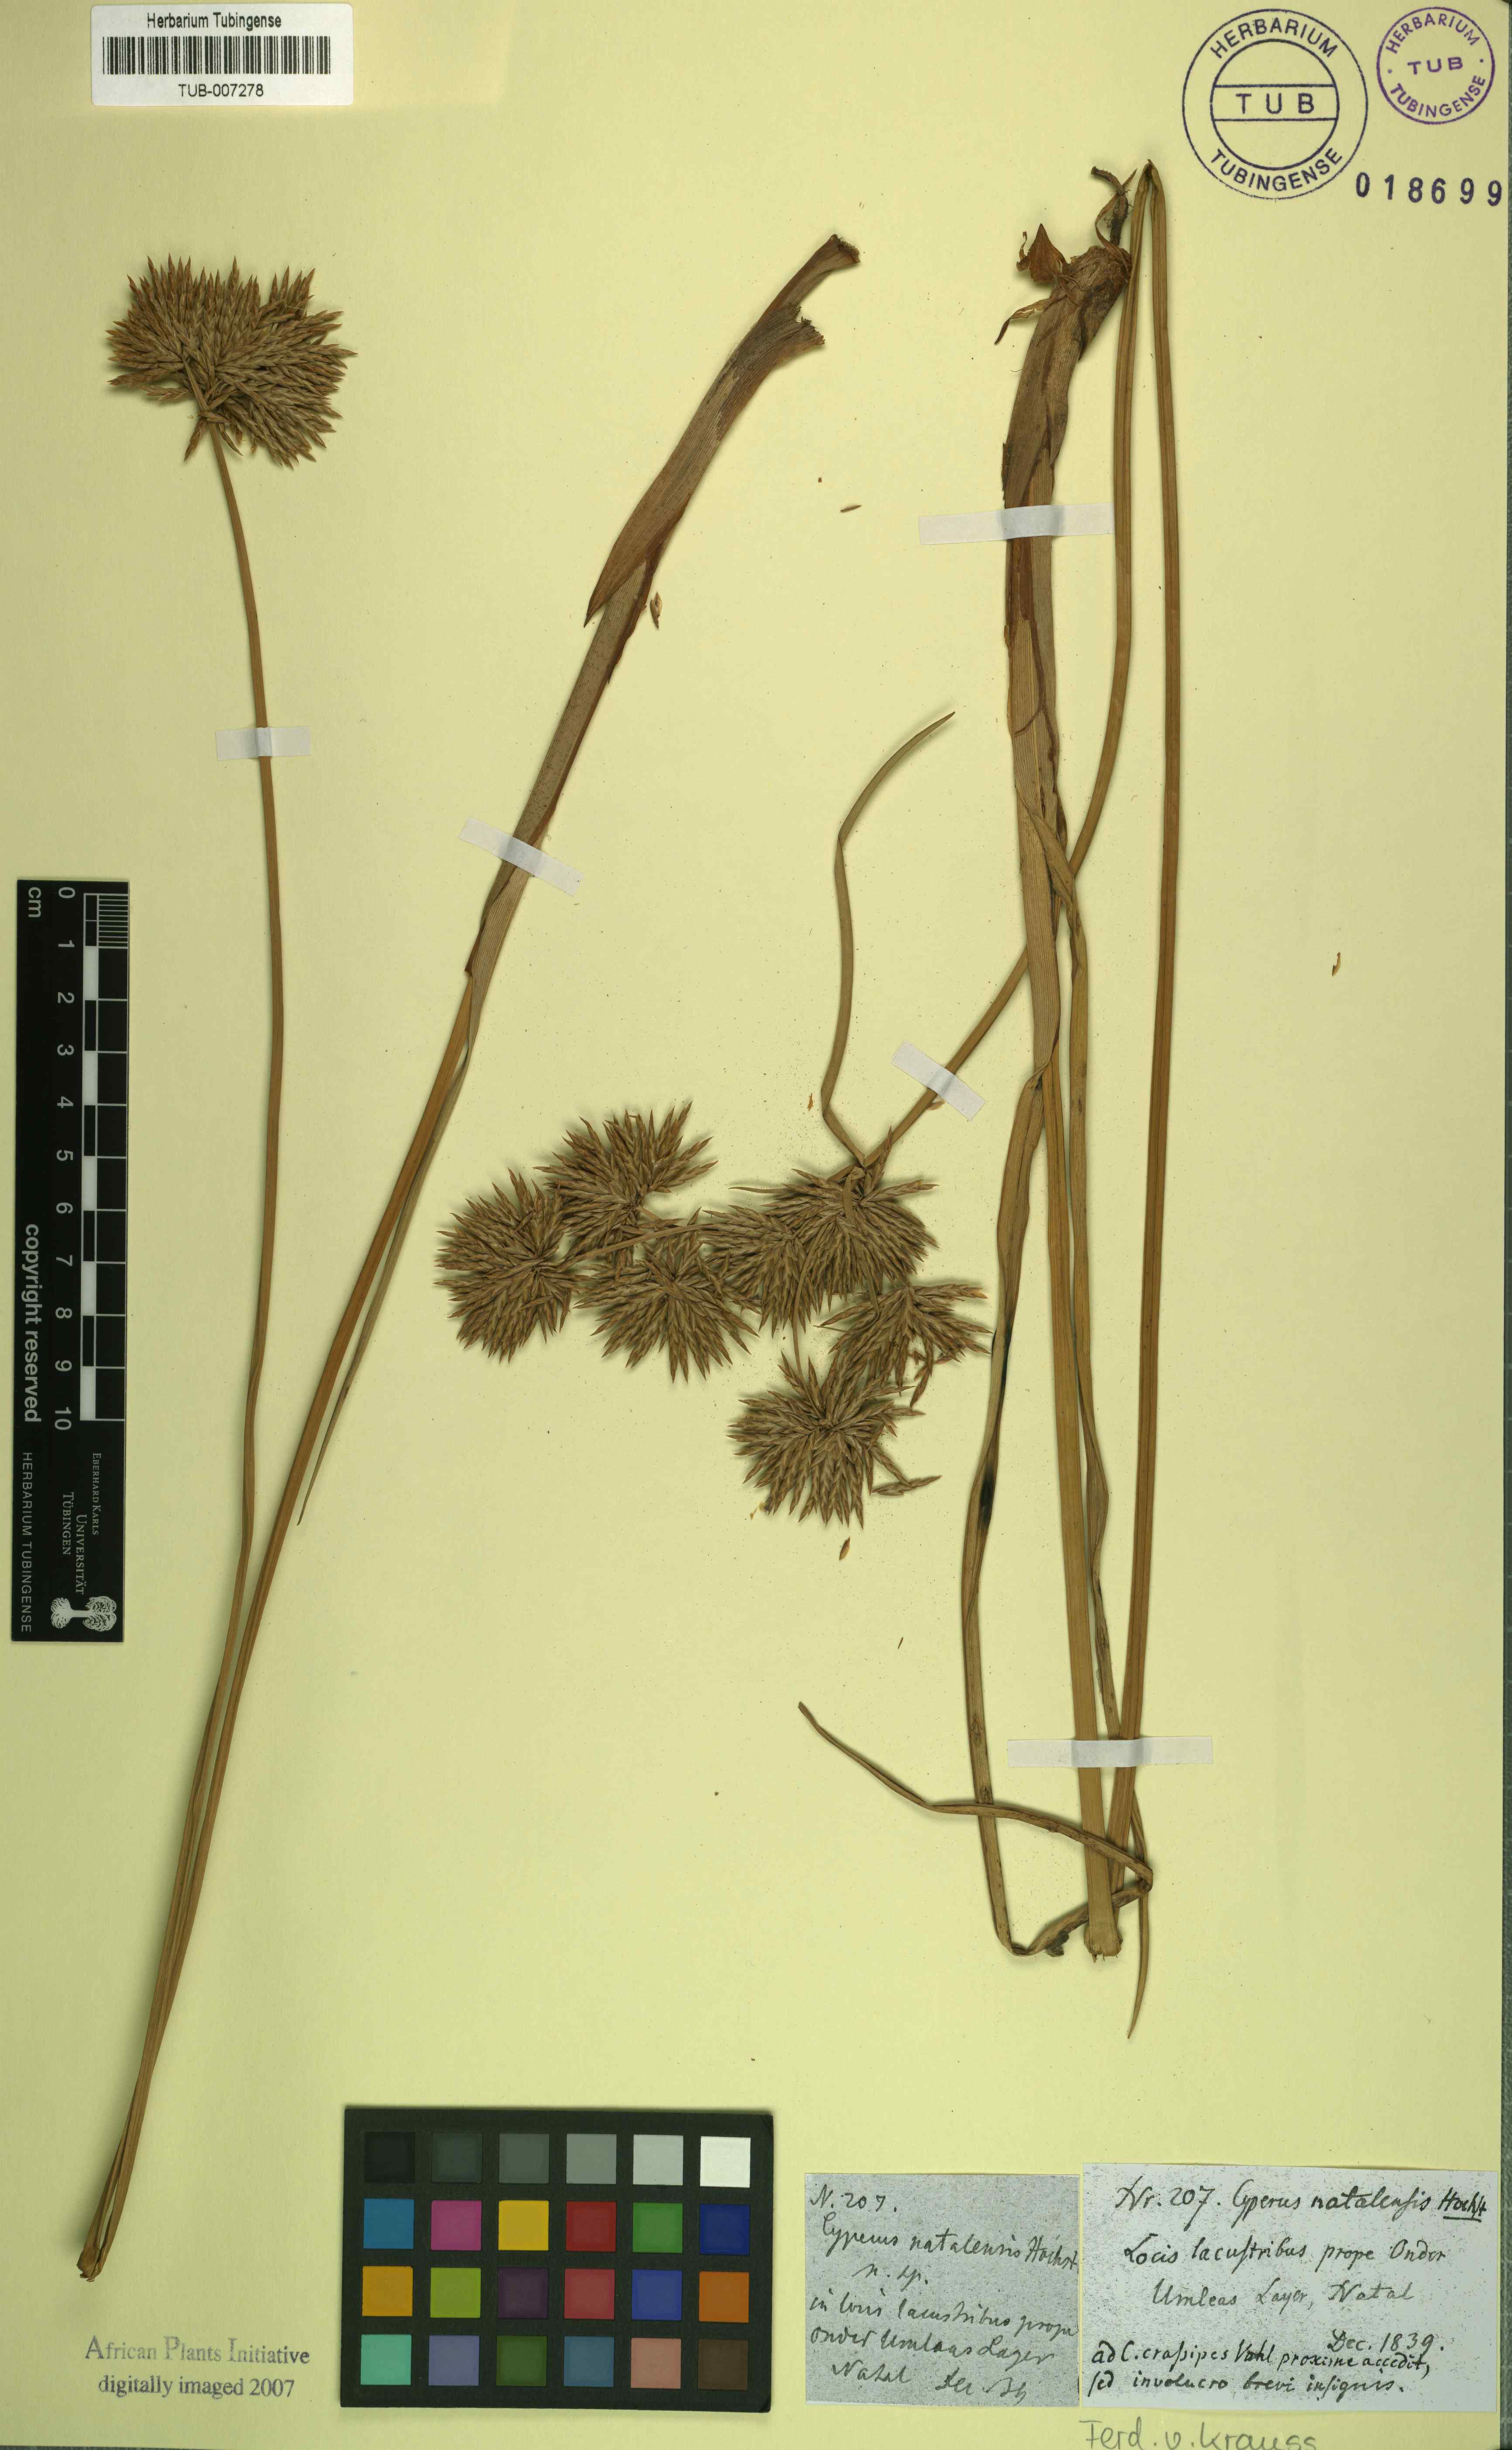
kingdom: Plantae
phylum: Tracheophyta
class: Liliopsida
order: Poales
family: Cyperaceae
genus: Cyperus
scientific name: Cyperus natalensis
